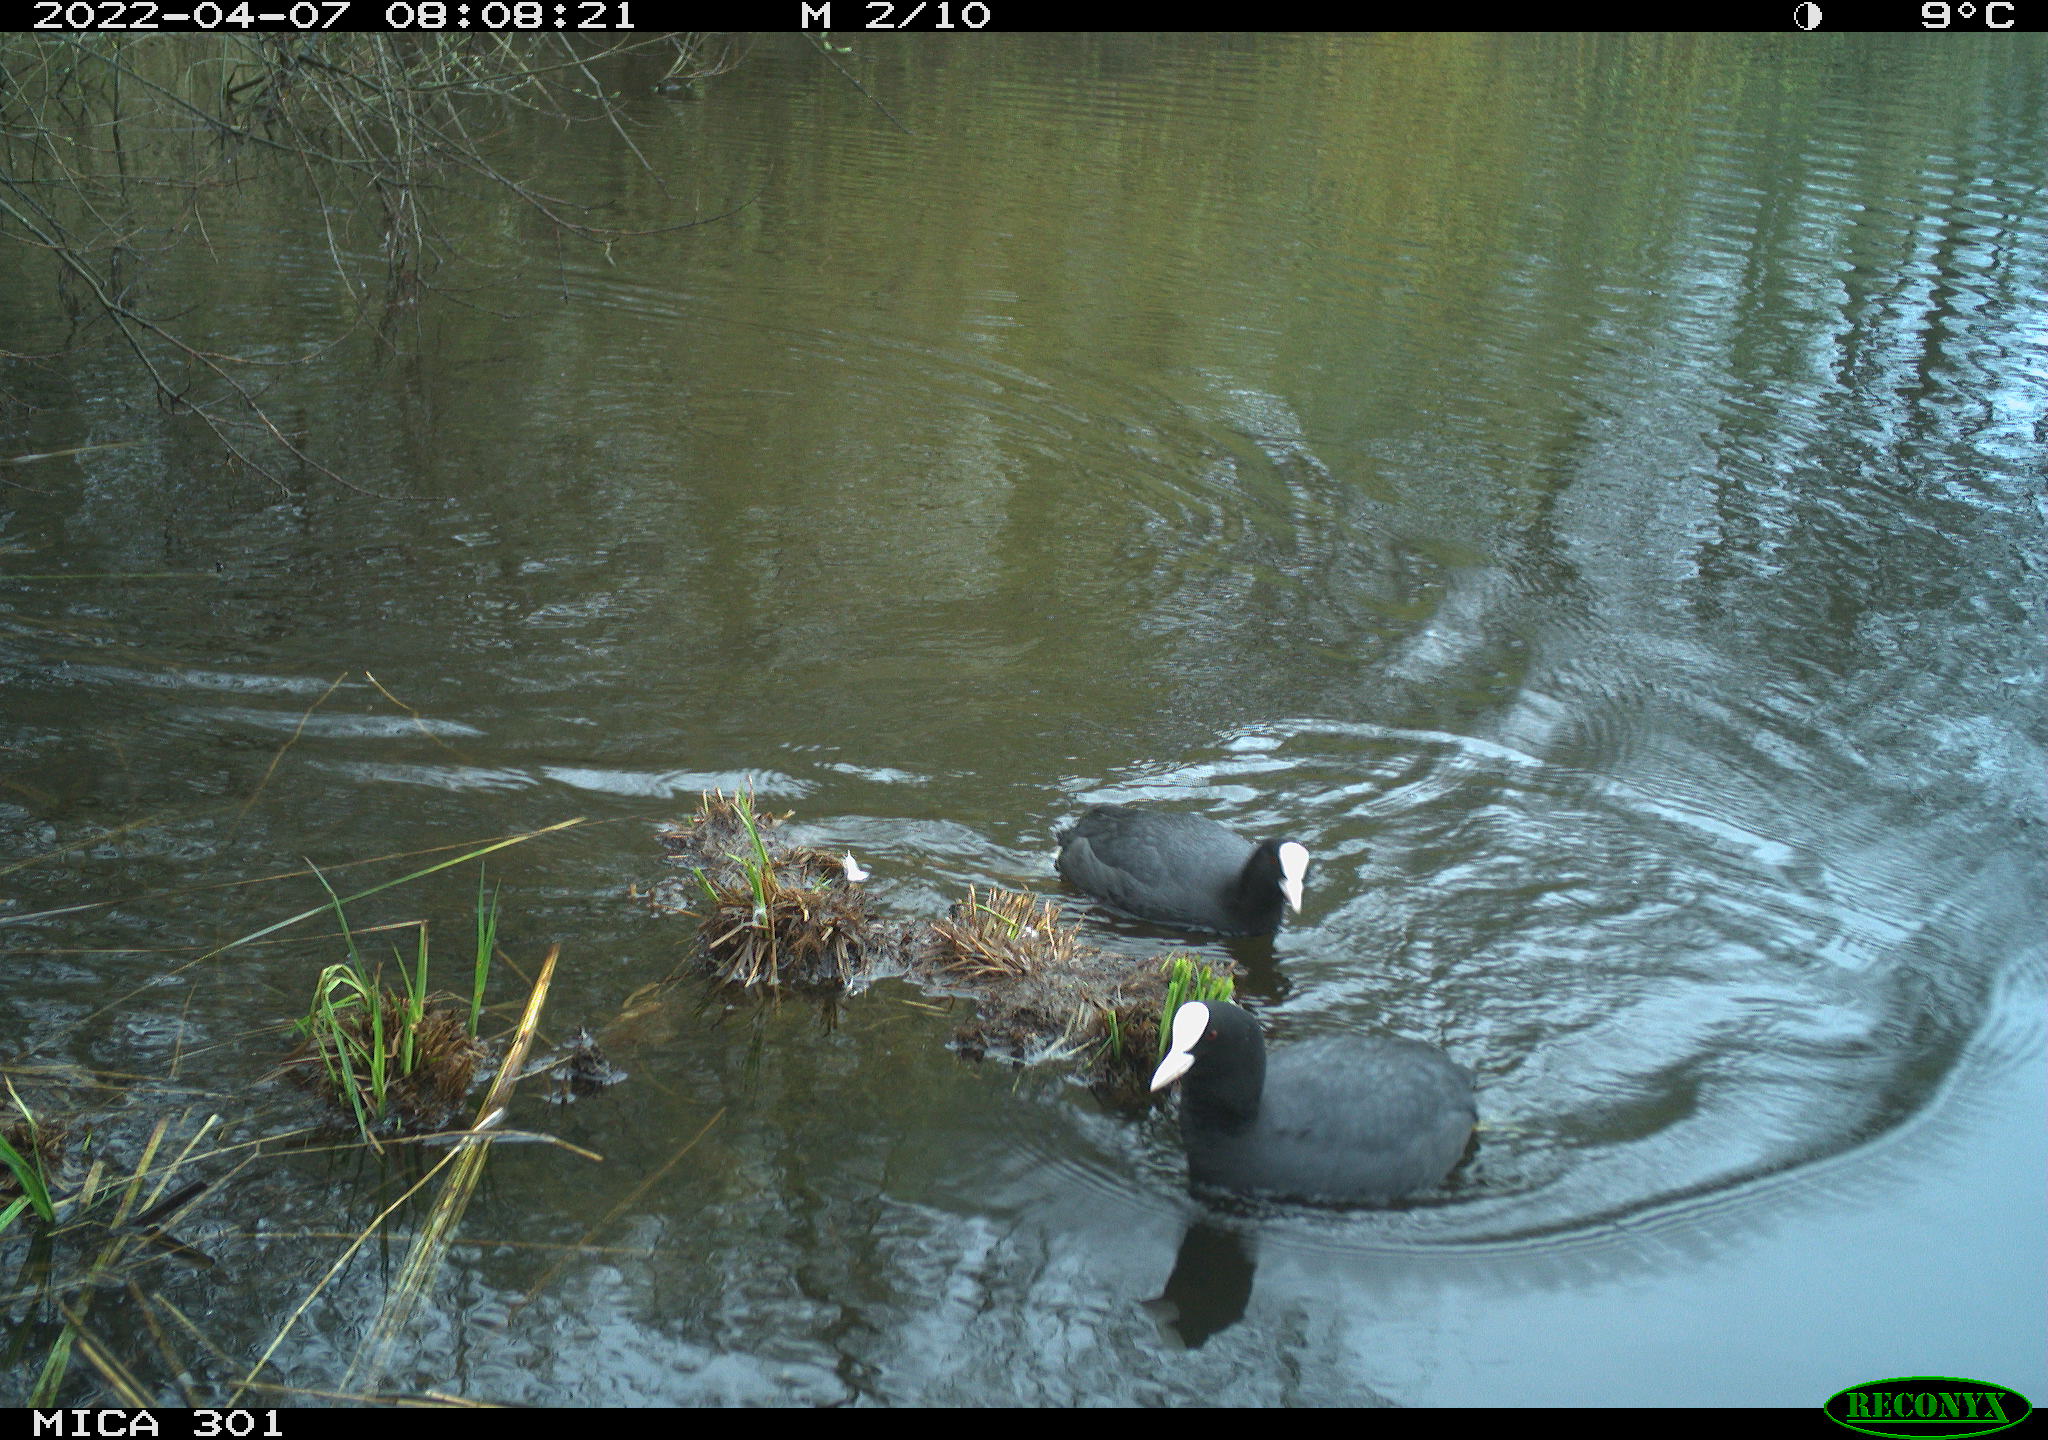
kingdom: Animalia
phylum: Chordata
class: Aves
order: Gruiformes
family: Rallidae
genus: Fulica
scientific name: Fulica atra
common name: Eurasian coot
